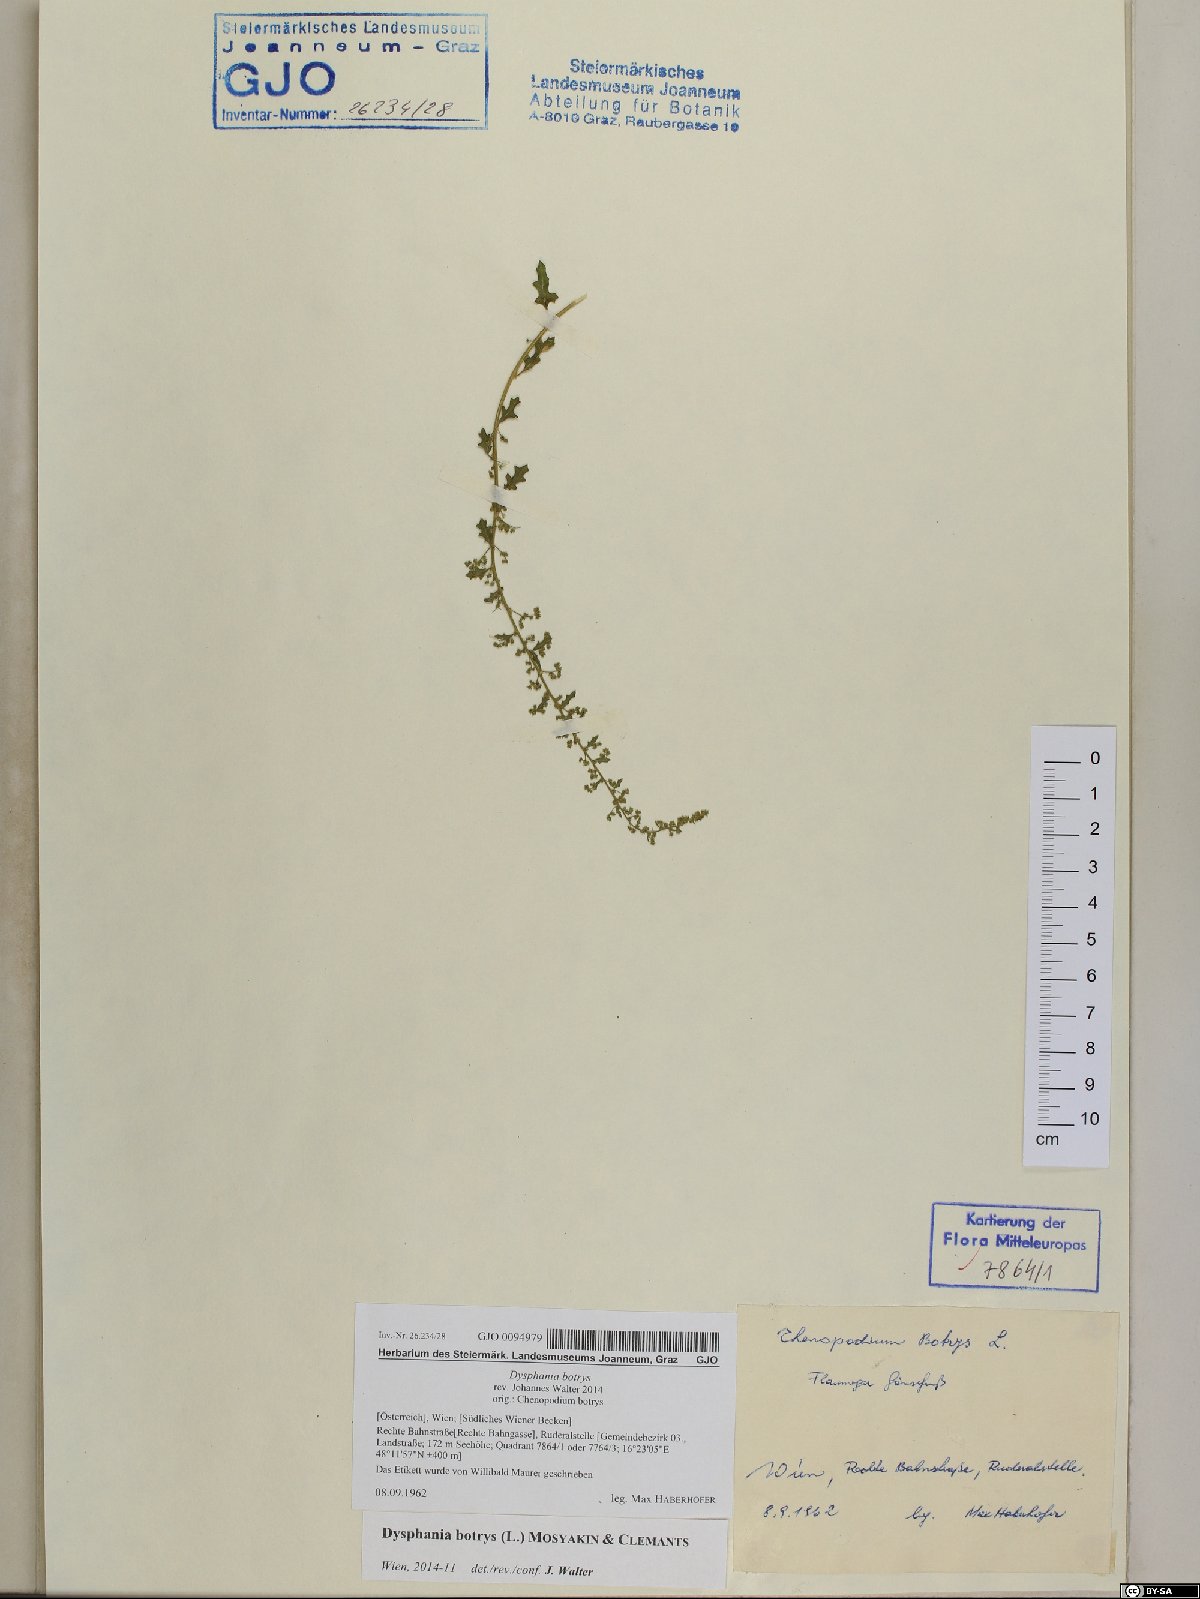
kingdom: Plantae
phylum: Tracheophyta
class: Magnoliopsida
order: Caryophyllales
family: Amaranthaceae
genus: Dysphania
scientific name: Dysphania botrys
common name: Feather-geranium
